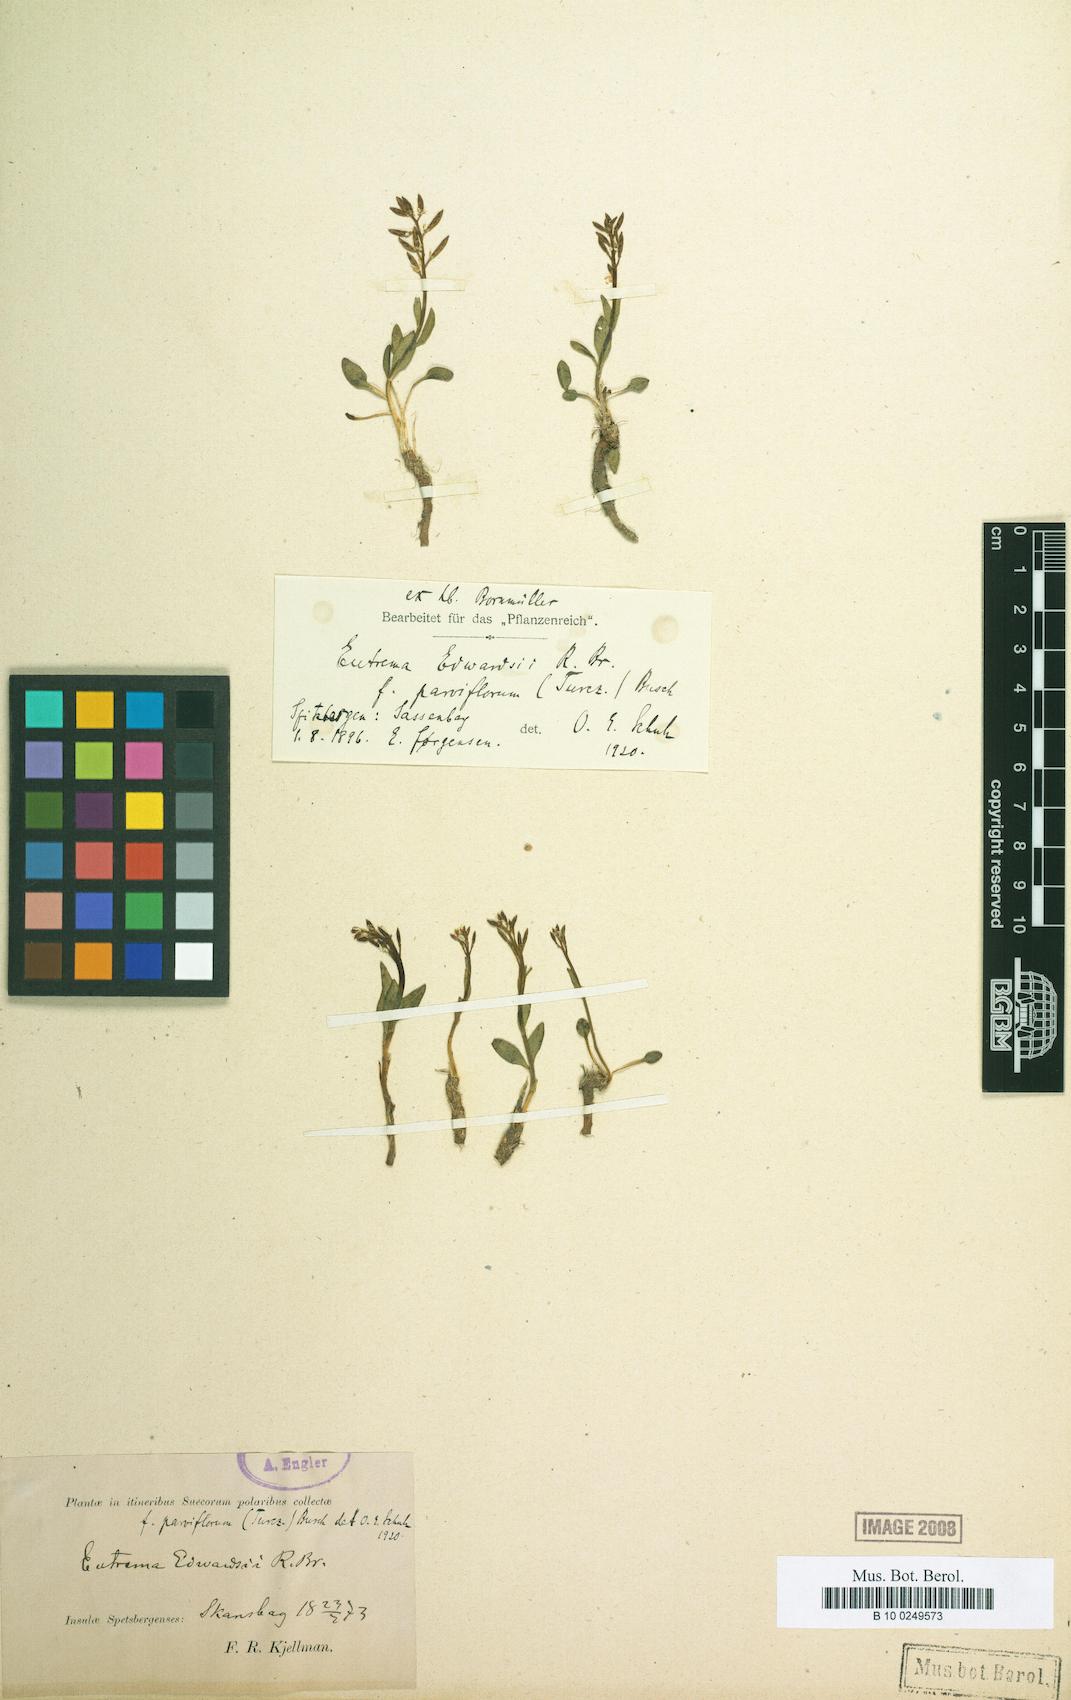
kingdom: Plantae
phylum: Tracheophyta
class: Magnoliopsida
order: Brassicales
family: Brassicaceae
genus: Eutrema
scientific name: Eutrema edwardsae
